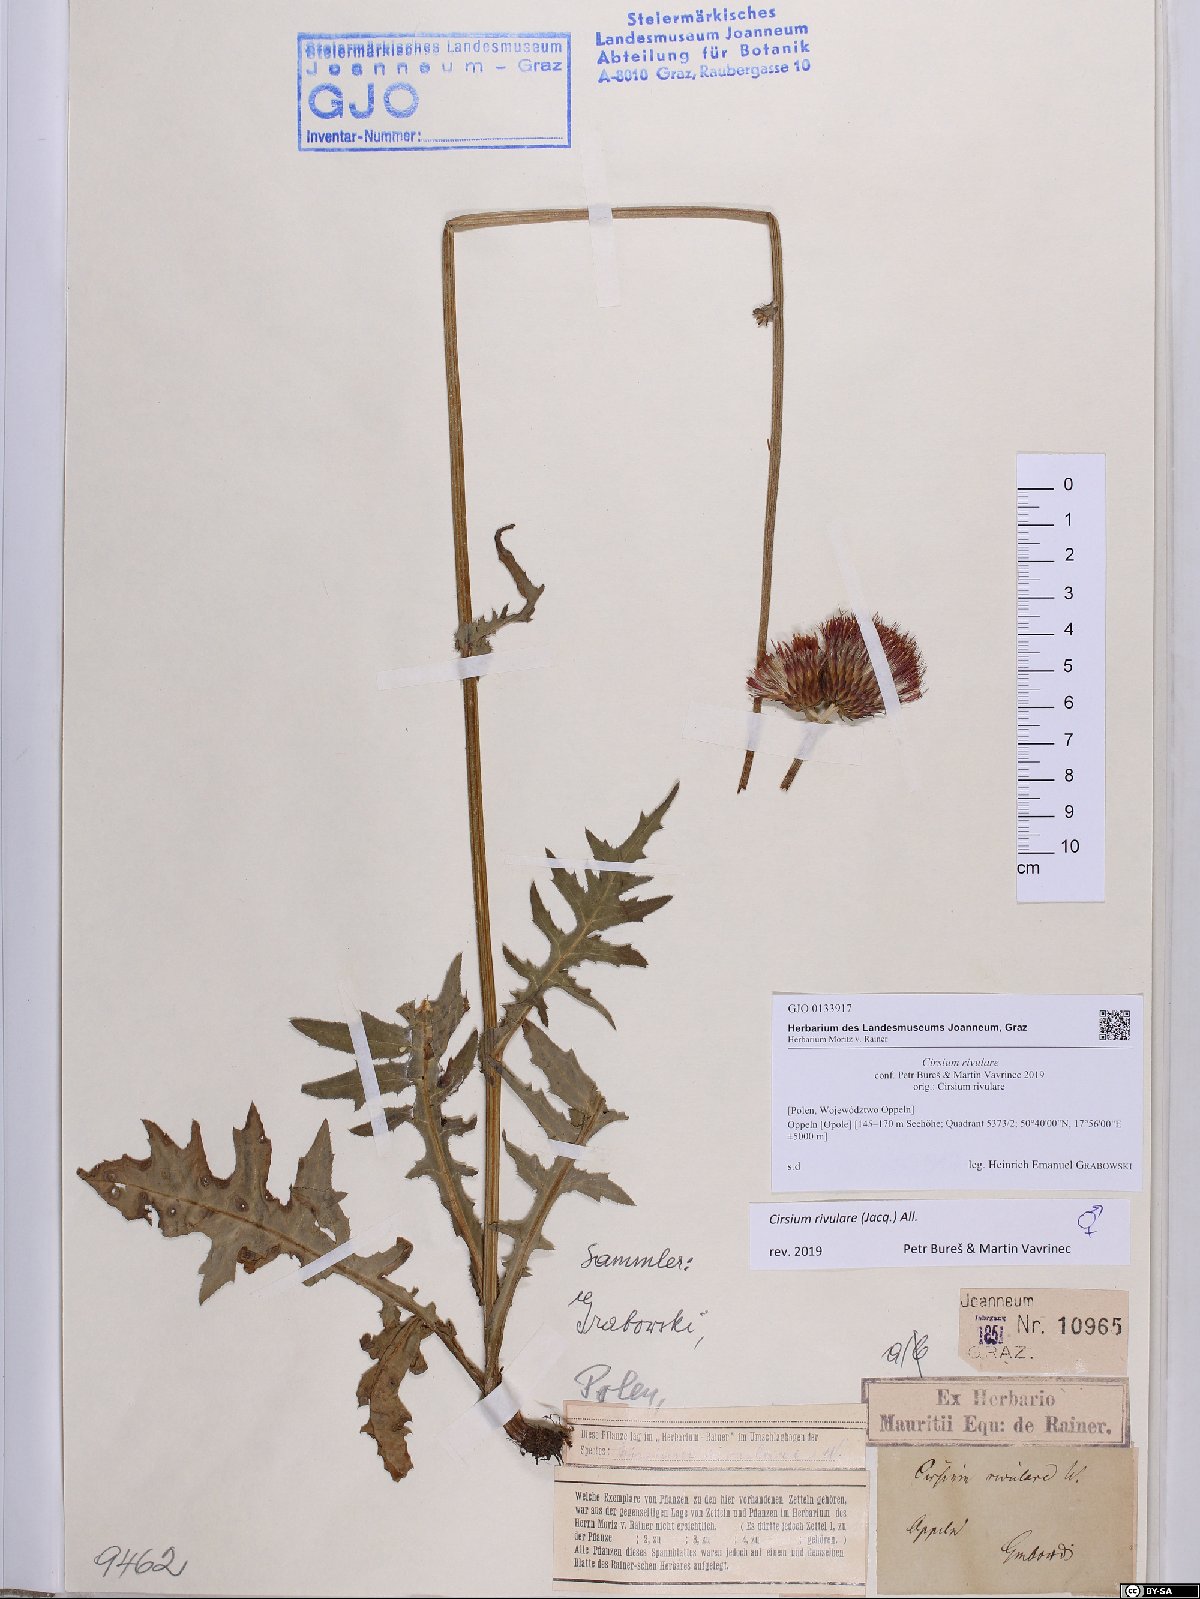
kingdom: Plantae
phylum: Tracheophyta
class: Magnoliopsida
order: Asterales
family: Asteraceae
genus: Cirsium
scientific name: Cirsium rivulare
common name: Brook thistle
